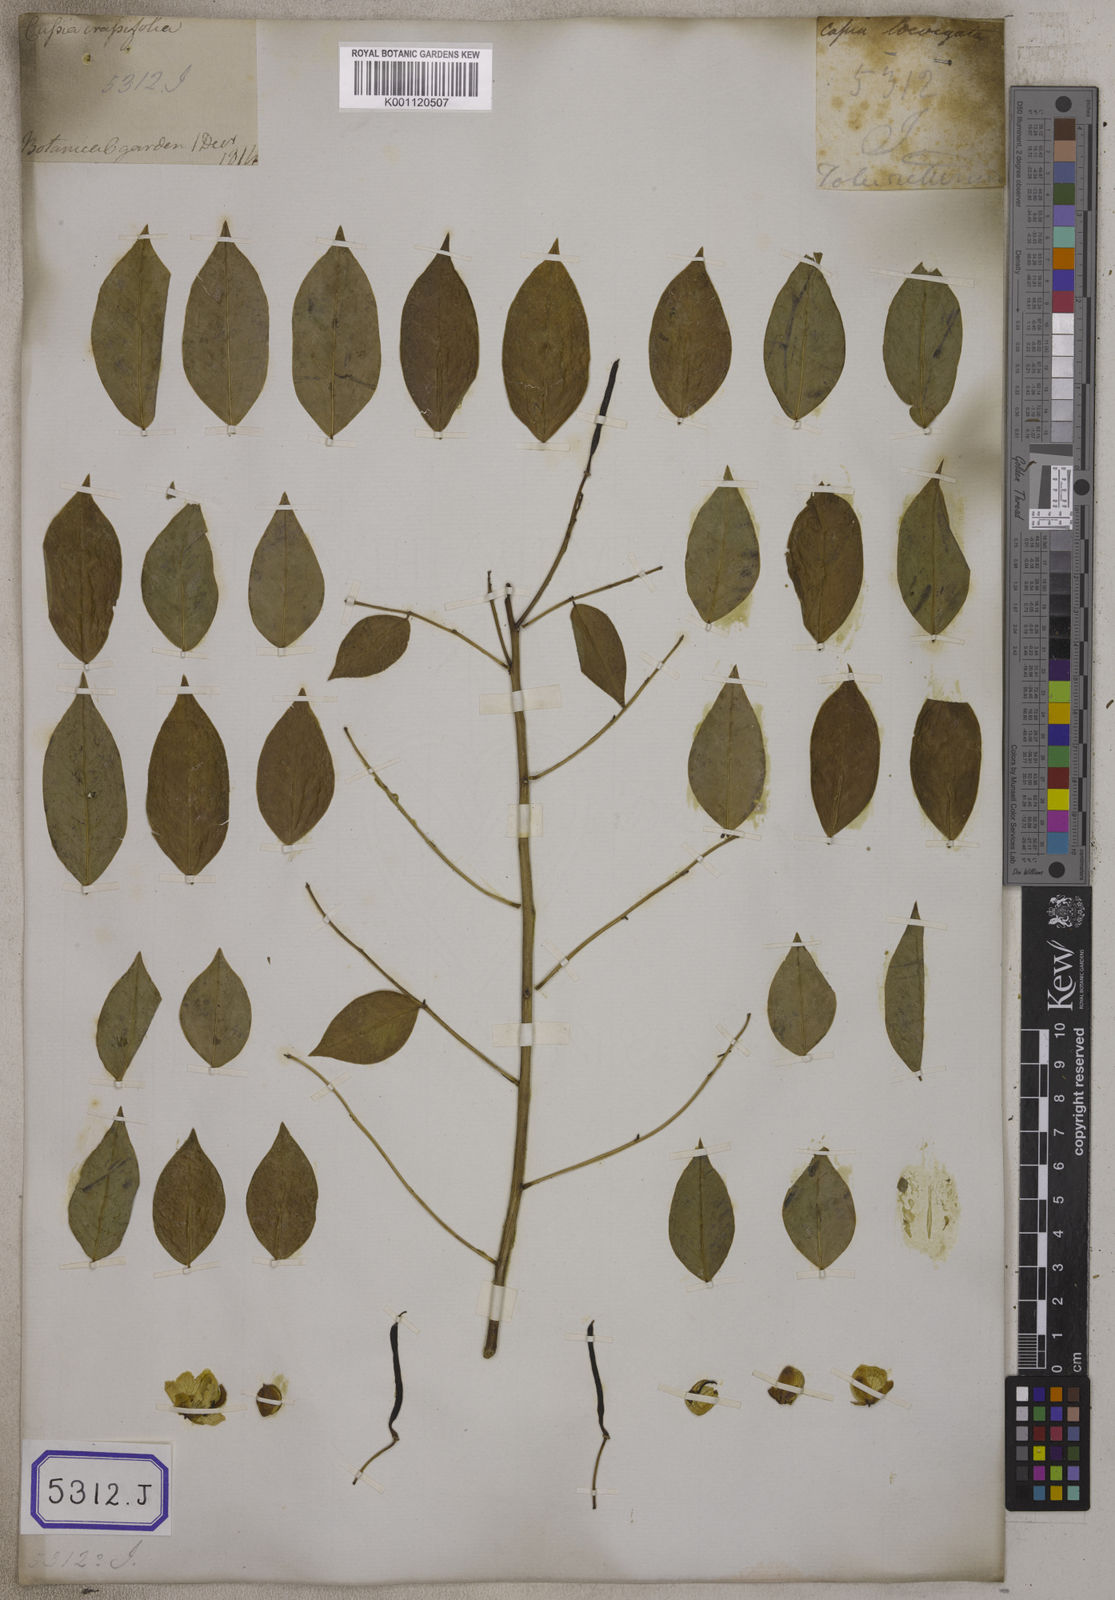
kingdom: Plantae
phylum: Tracheophyta
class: Magnoliopsida
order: Fabales
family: Fabaceae
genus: Senna
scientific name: Senna sulfurea
